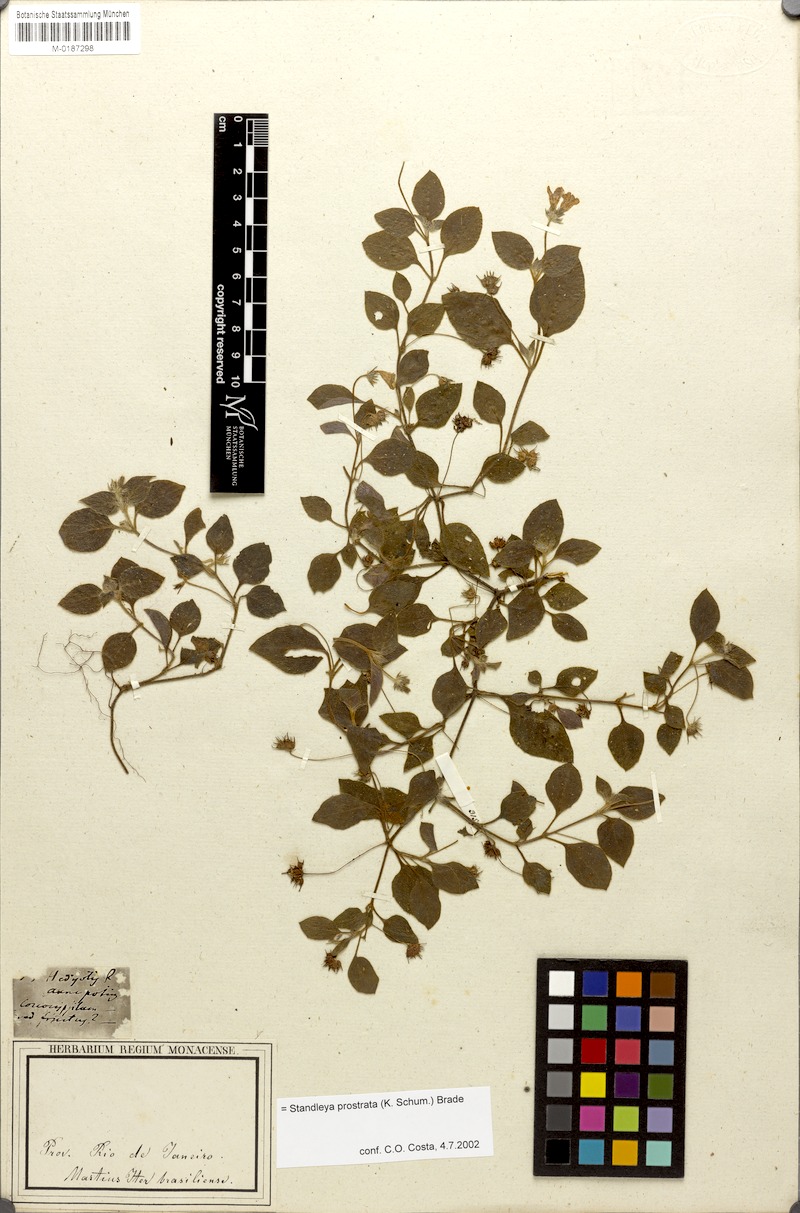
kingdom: Plantae
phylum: Tracheophyta
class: Magnoliopsida
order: Gentianales
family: Rubiaceae
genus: Standleya
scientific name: Standleya prostrata
